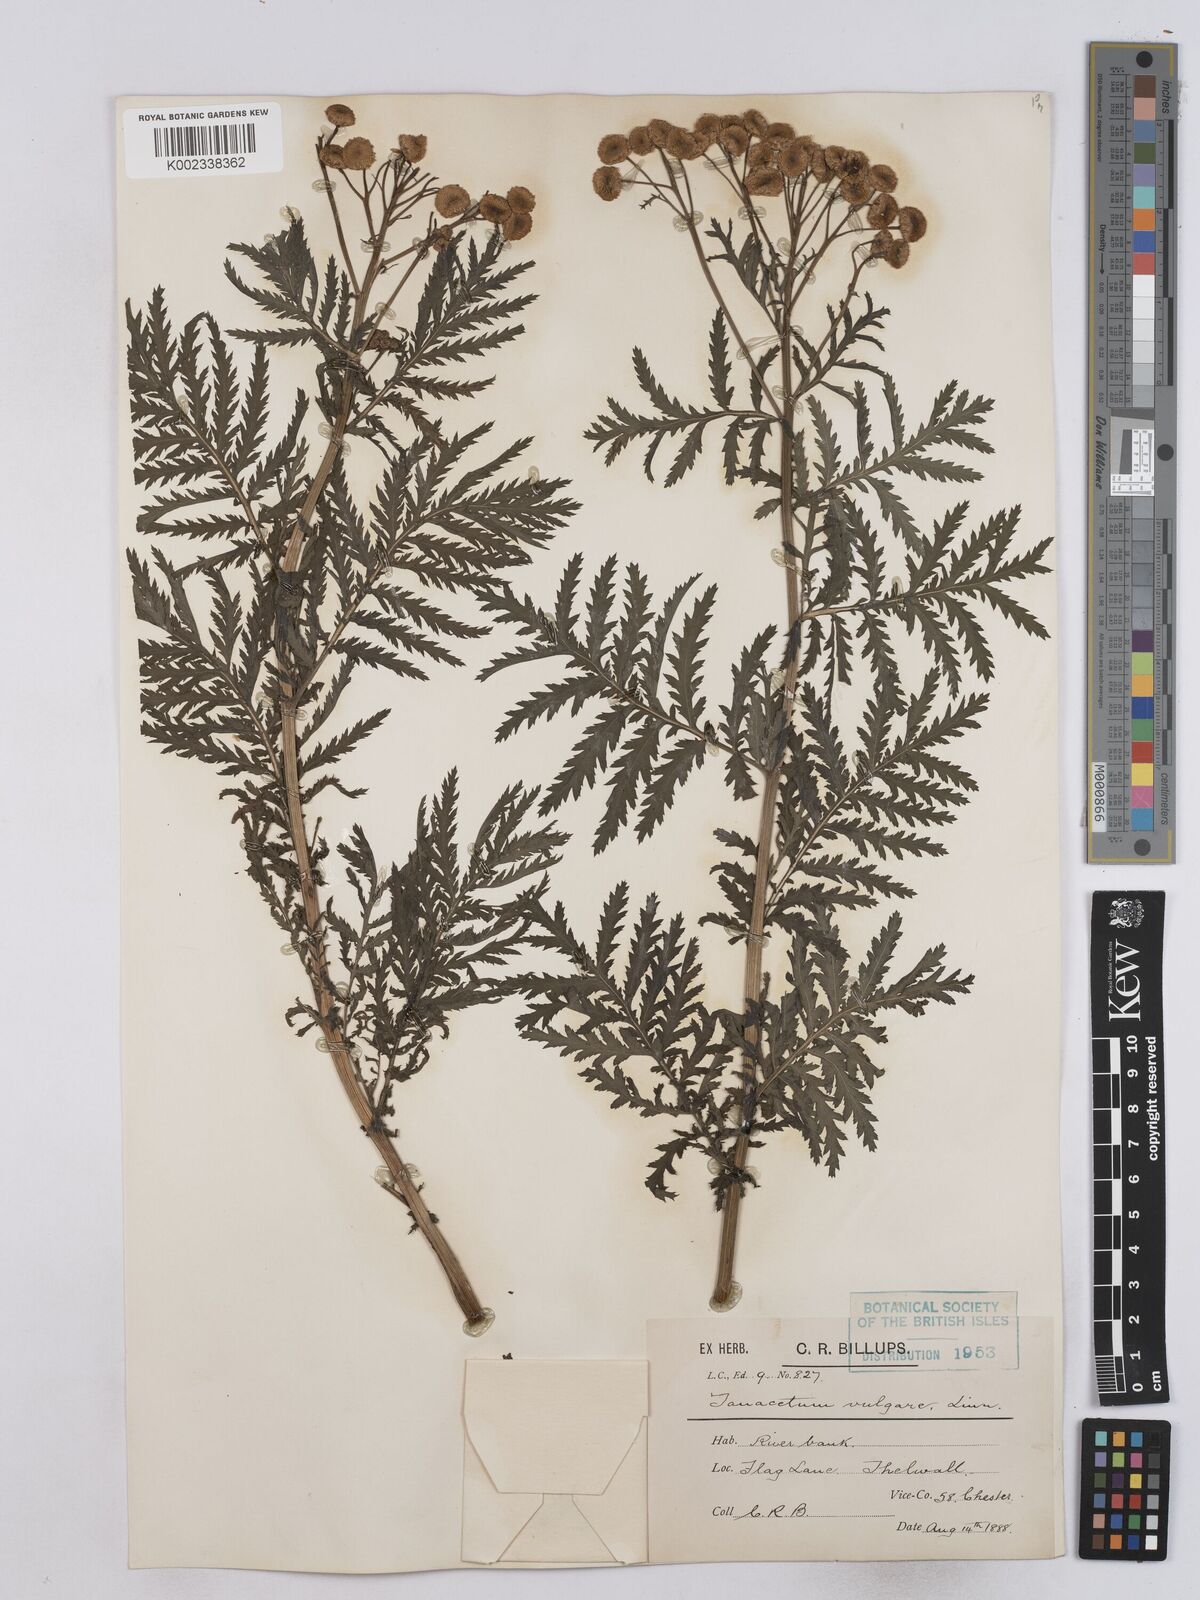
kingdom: Plantae
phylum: Tracheophyta
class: Magnoliopsida
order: Asterales
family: Asteraceae
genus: Tanacetum
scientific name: Tanacetum vulgare
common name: Common tansy
